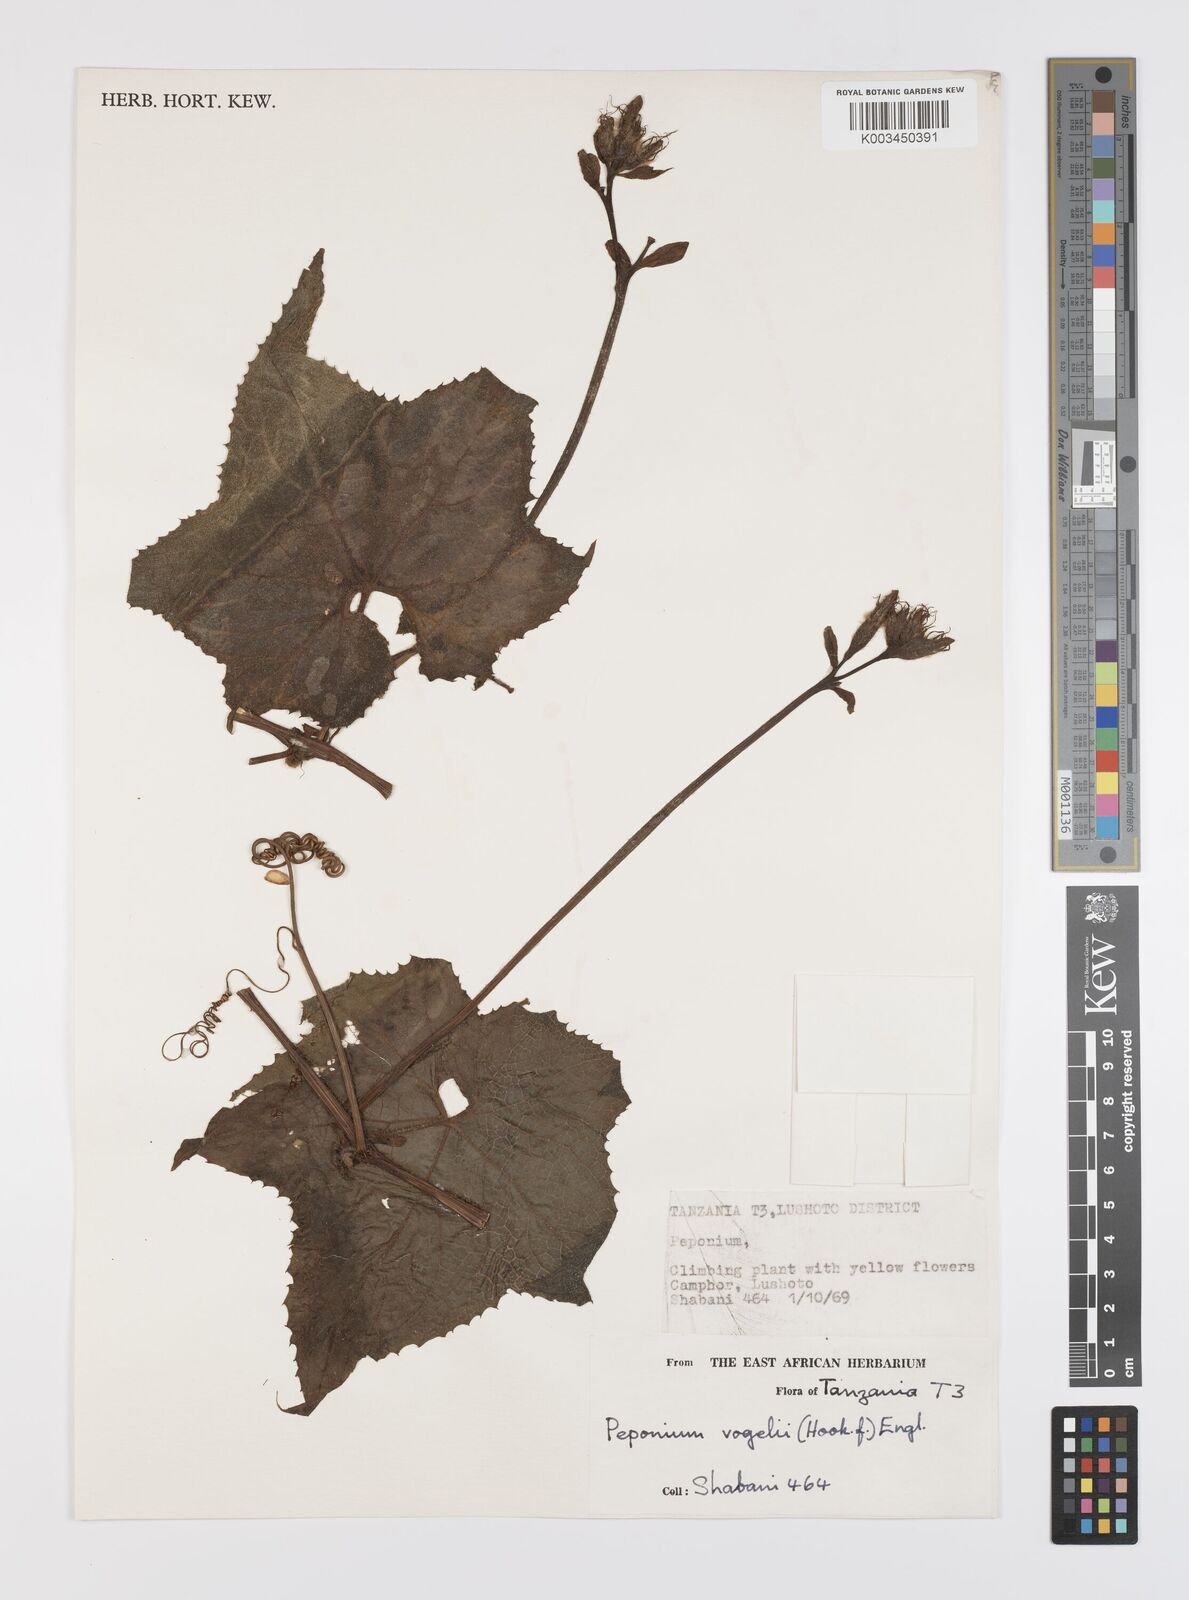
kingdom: Plantae
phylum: Tracheophyta
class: Magnoliopsida
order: Cucurbitales
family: Cucurbitaceae
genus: Peponium
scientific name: Peponium vogelii
